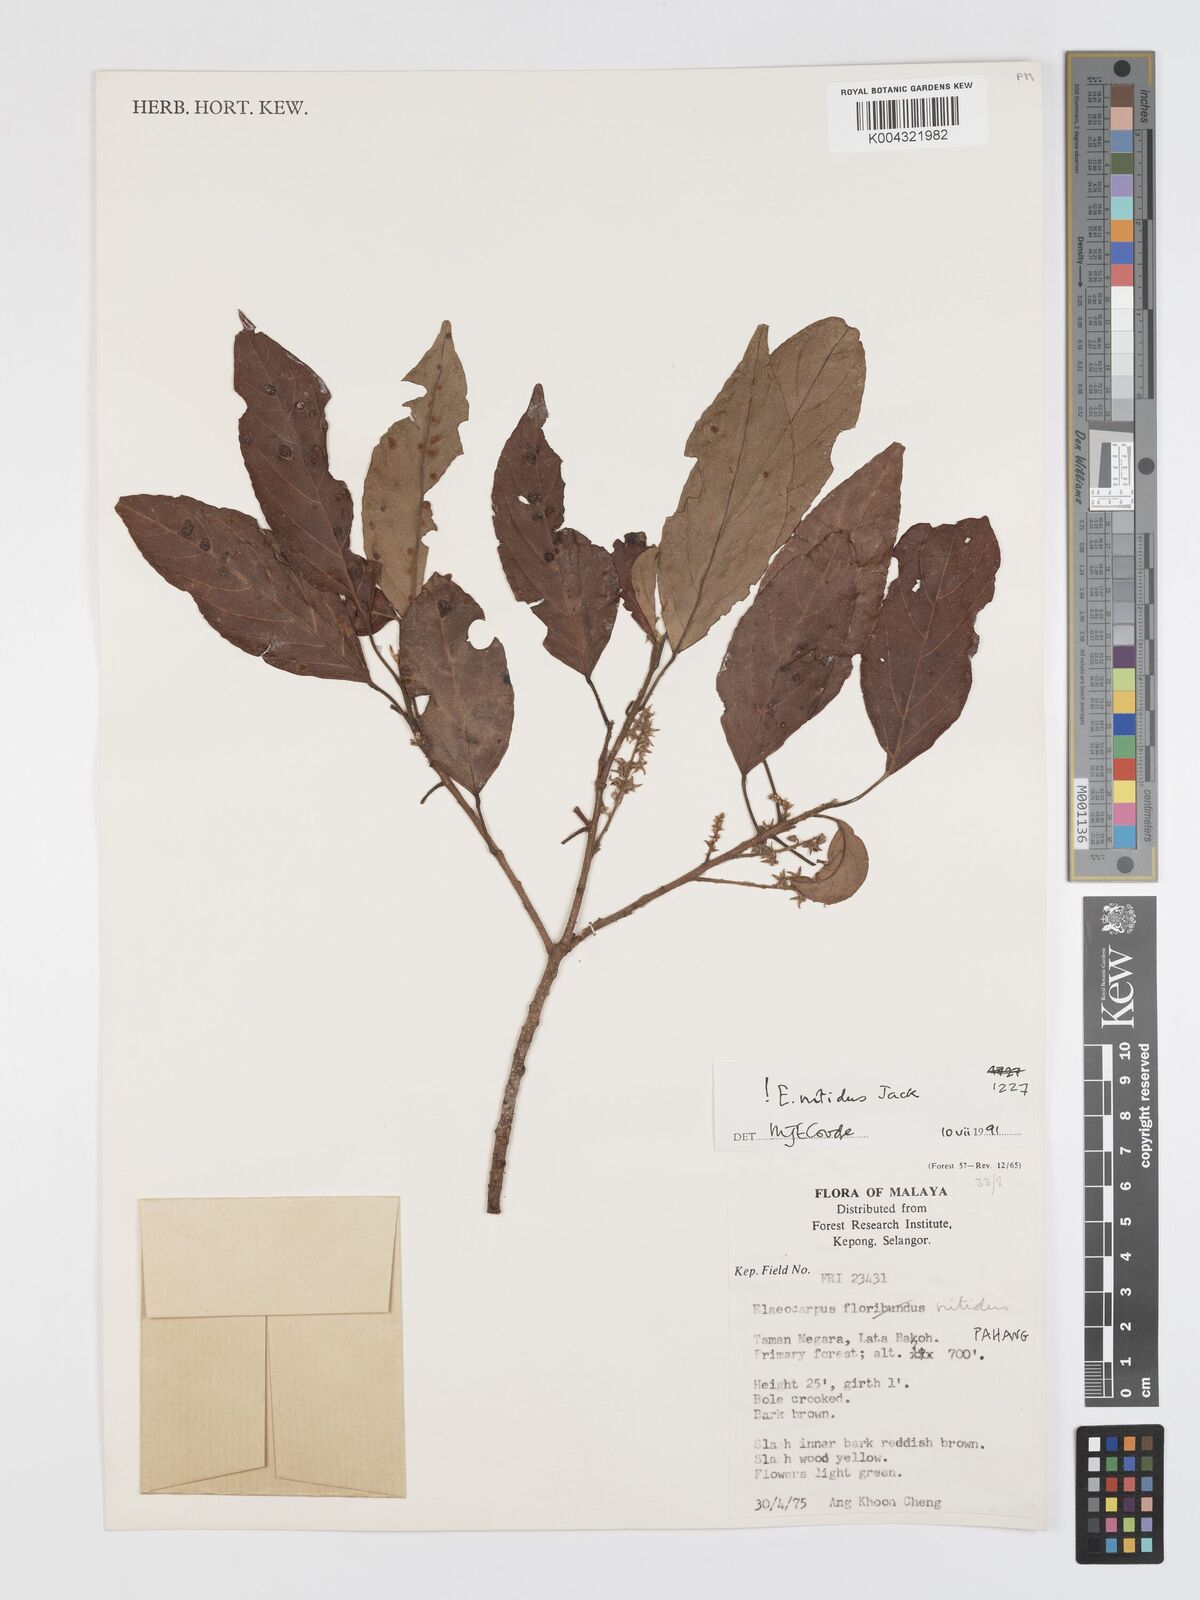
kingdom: Plantae
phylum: Tracheophyta
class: Magnoliopsida
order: Oxalidales
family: Elaeocarpaceae
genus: Elaeocarpus
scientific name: Elaeocarpus nitidus
